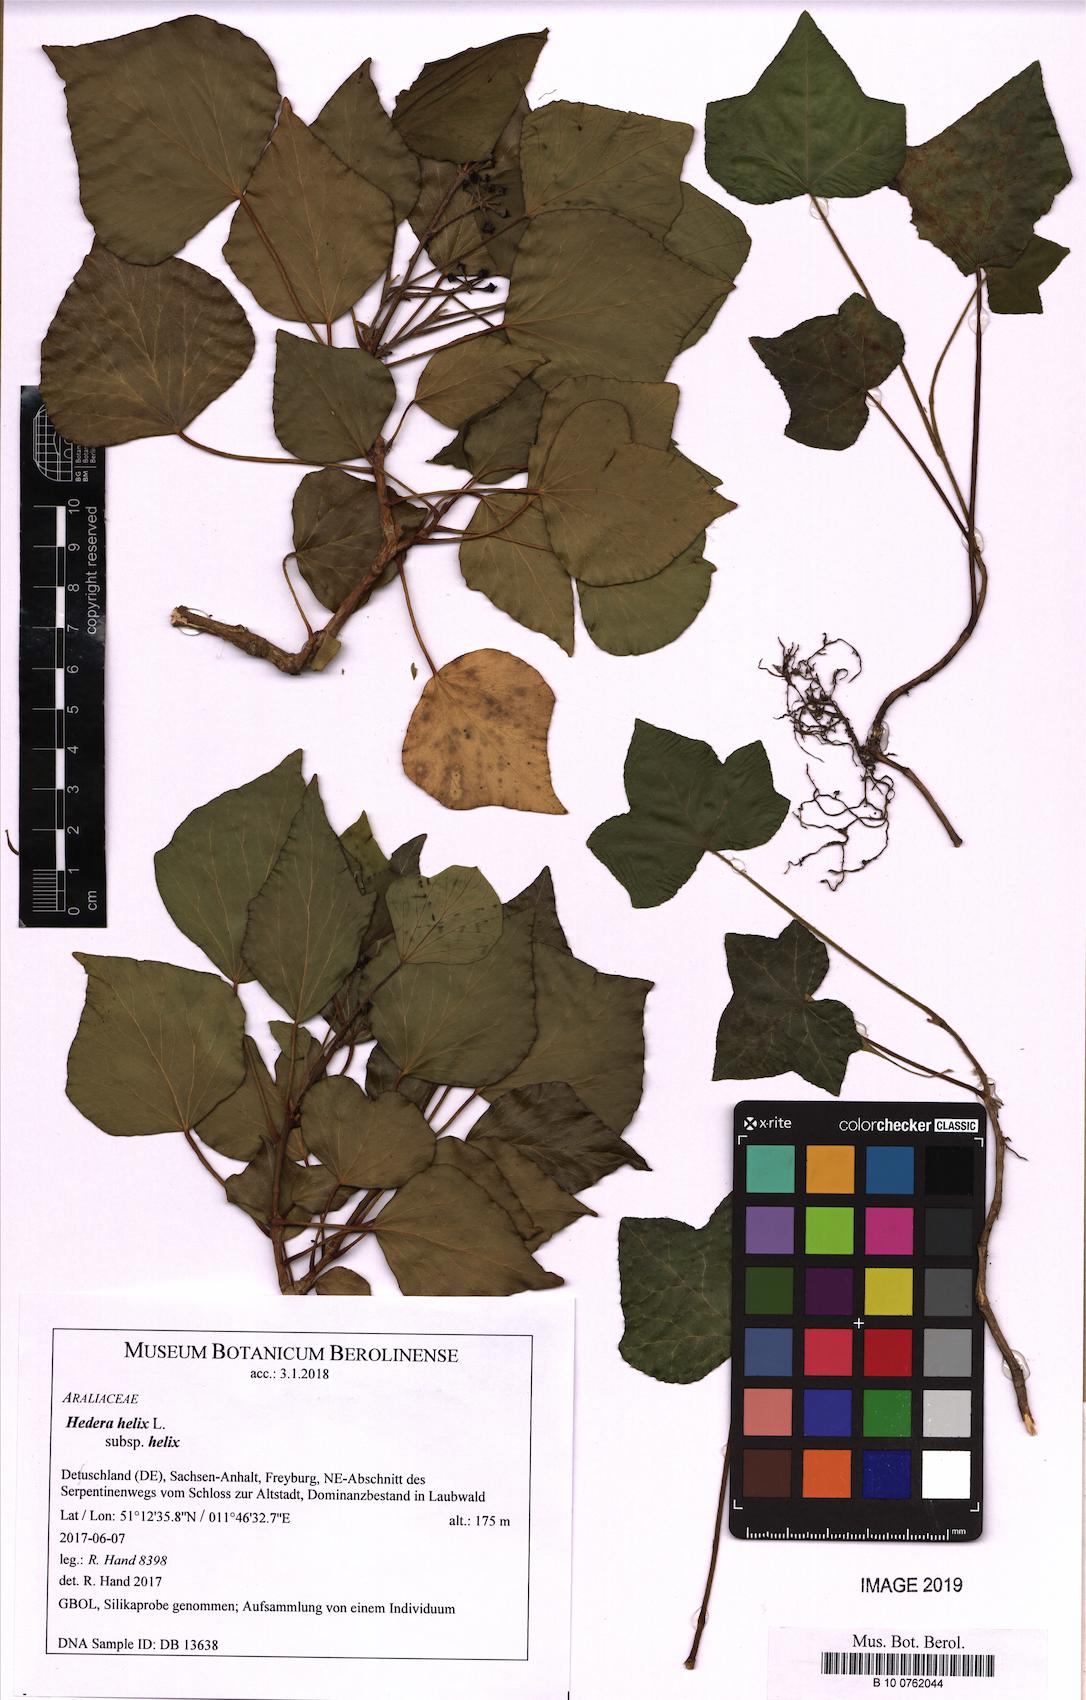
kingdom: Plantae
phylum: Tracheophyta
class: Magnoliopsida
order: Apiales
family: Araliaceae
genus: Hedera
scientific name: Hedera helix
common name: Ivy
